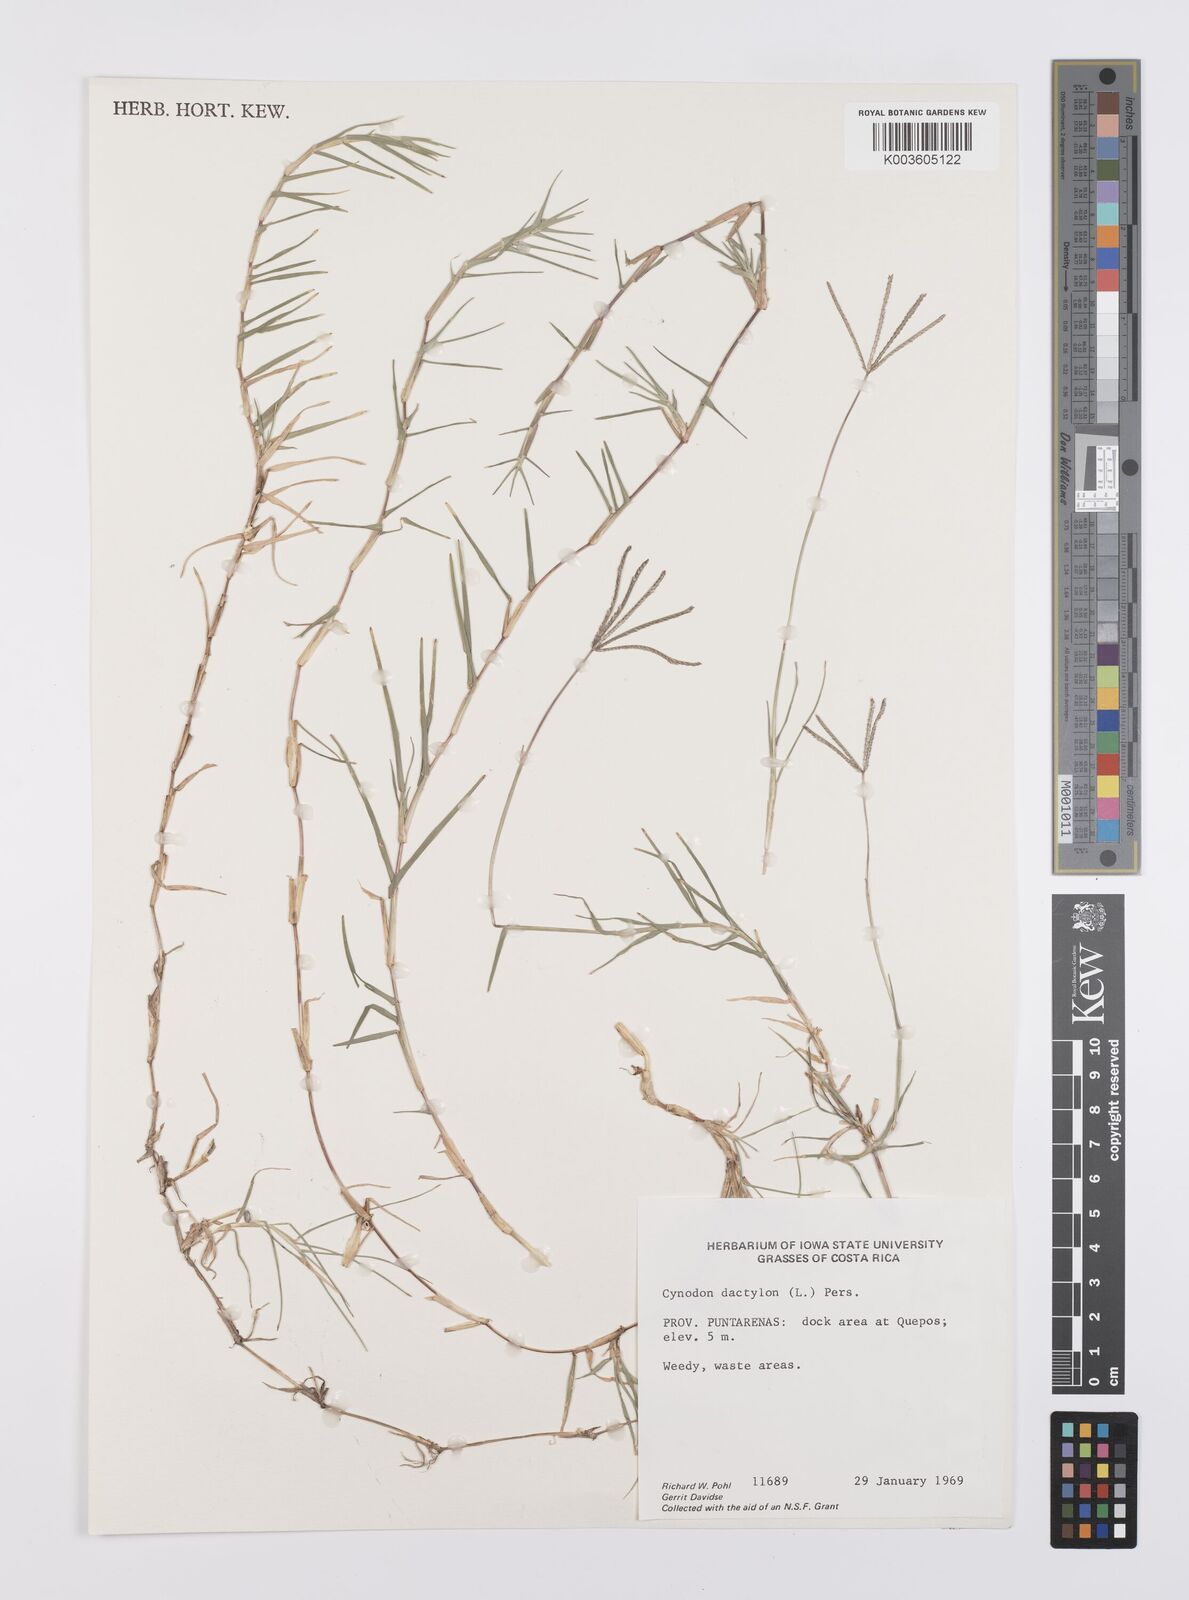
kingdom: Plantae
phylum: Tracheophyta
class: Liliopsida
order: Poales
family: Poaceae
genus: Cynodon
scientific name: Cynodon dactylon
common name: Bermuda grass
